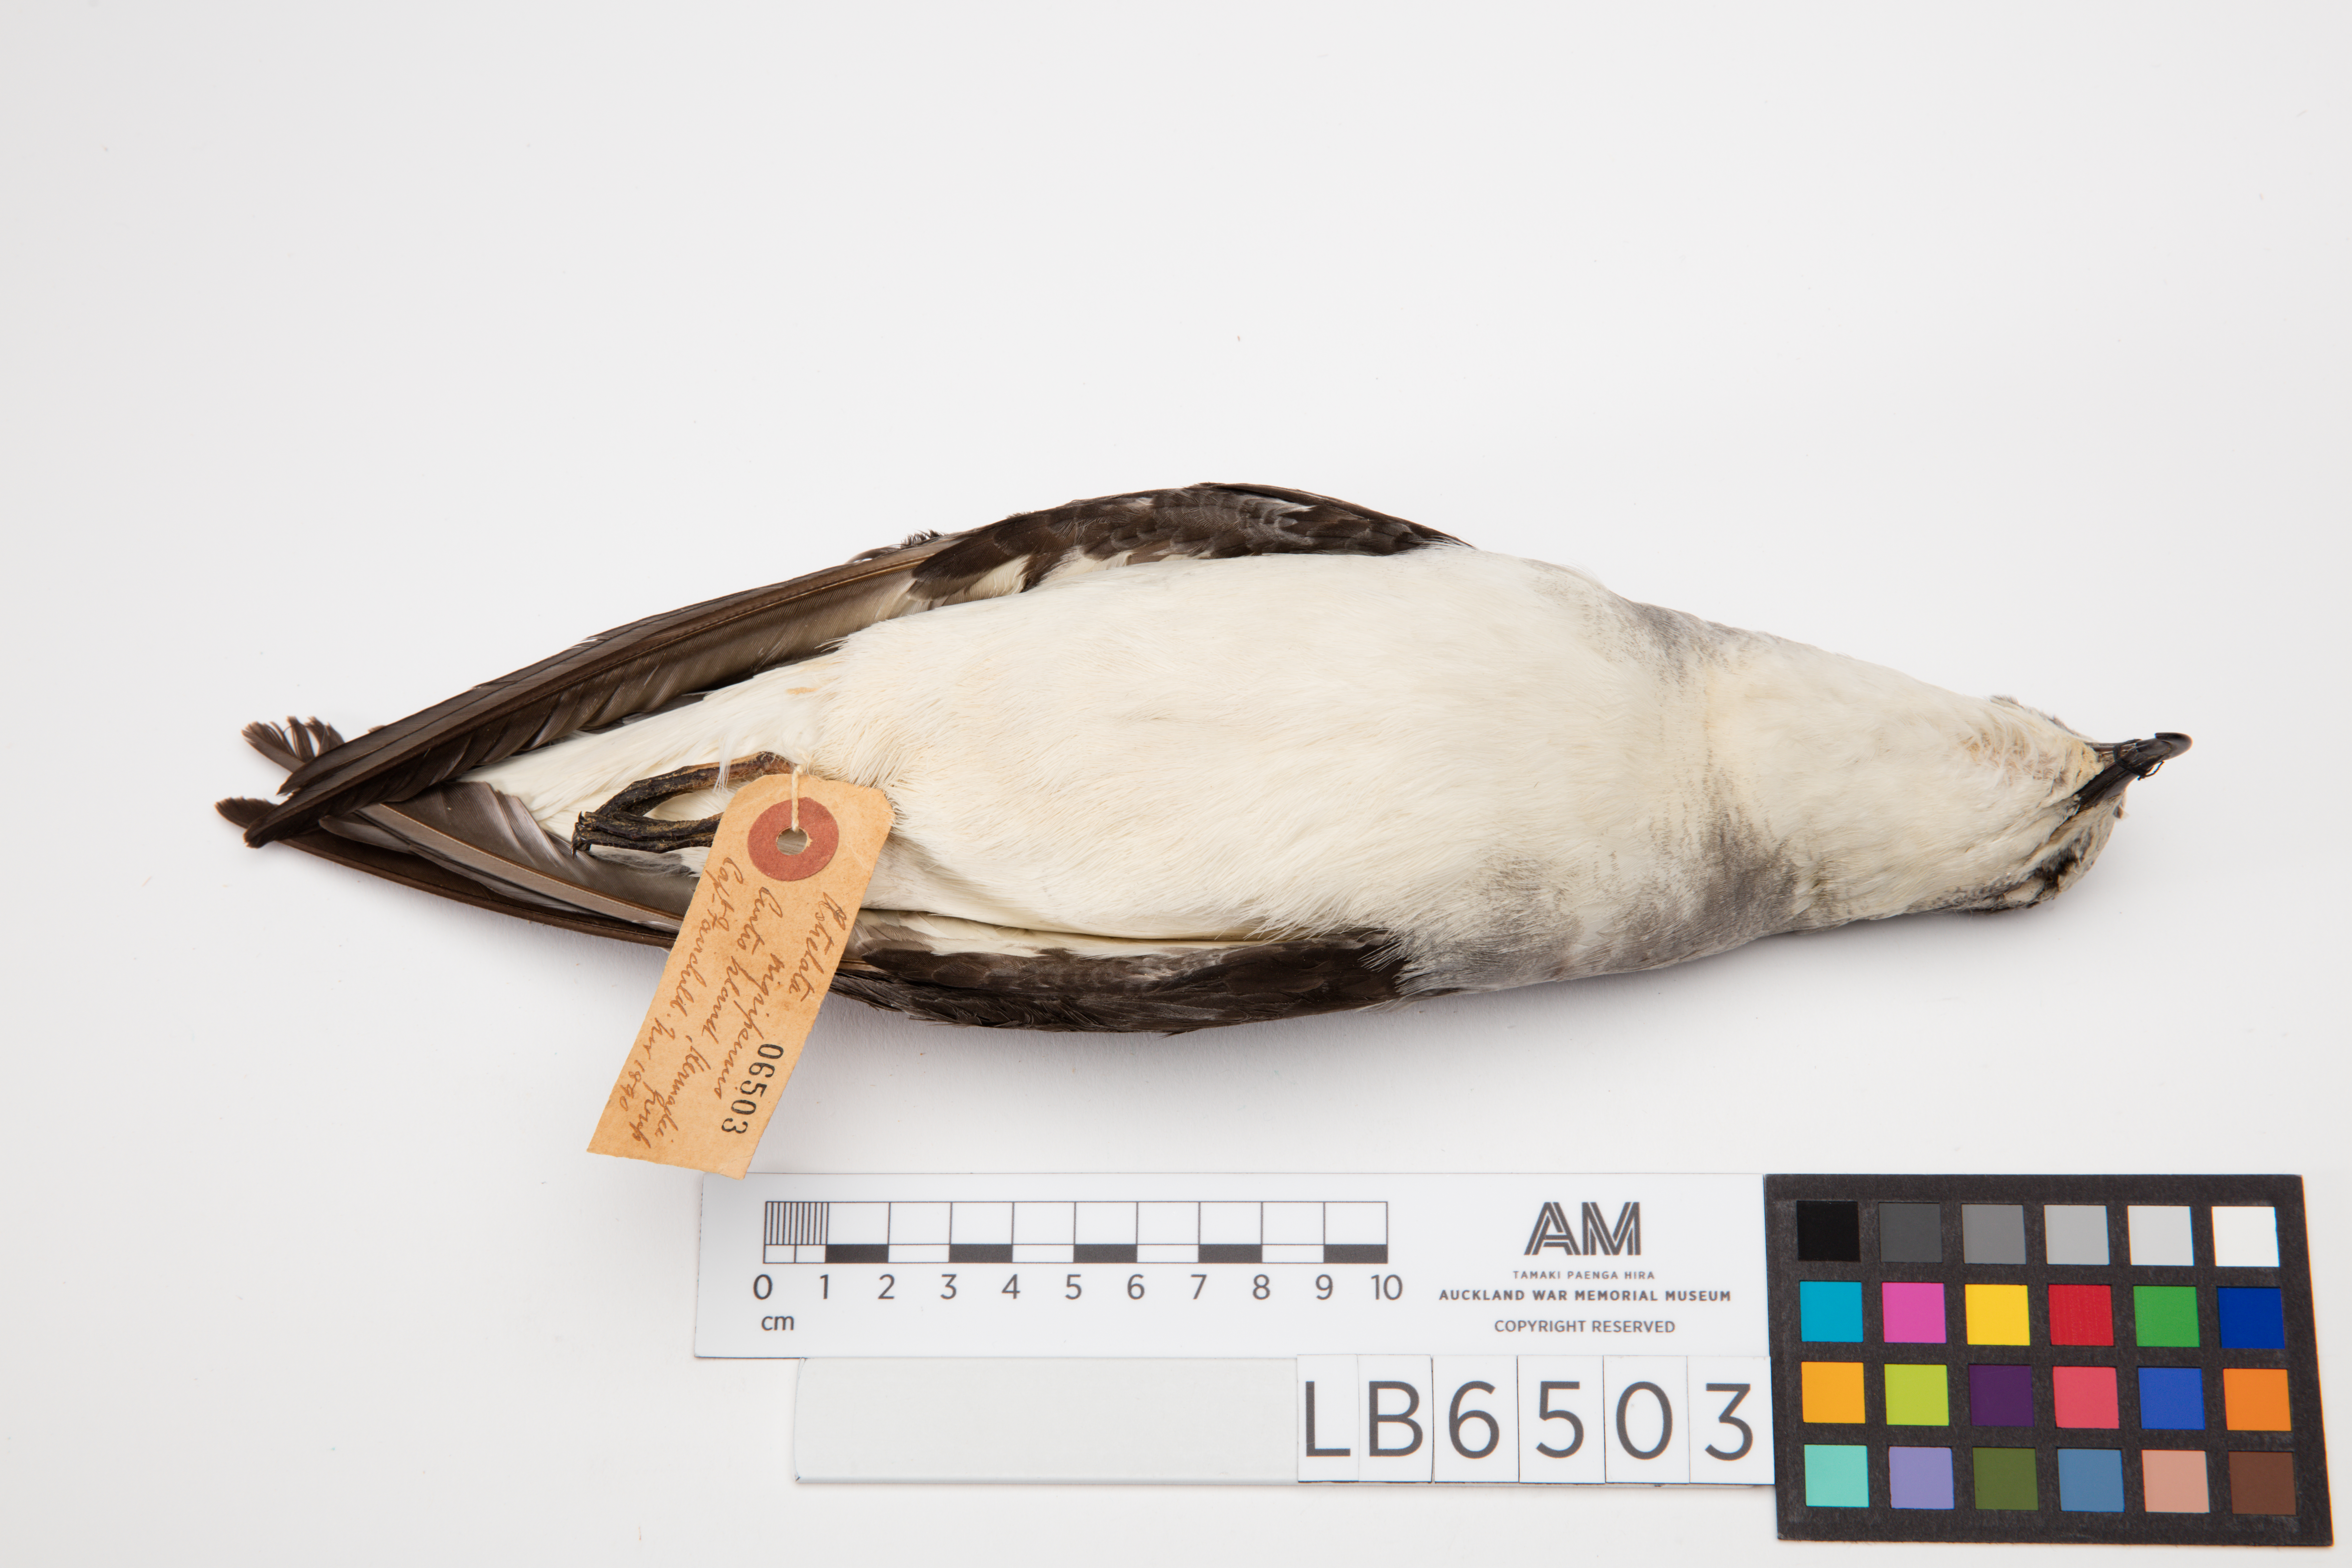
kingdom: Animalia
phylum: Chordata
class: Aves
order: Procellariiformes
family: Procellariidae
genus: Pterodroma
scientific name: Pterodroma nigripennis
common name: Black-winged petrel
